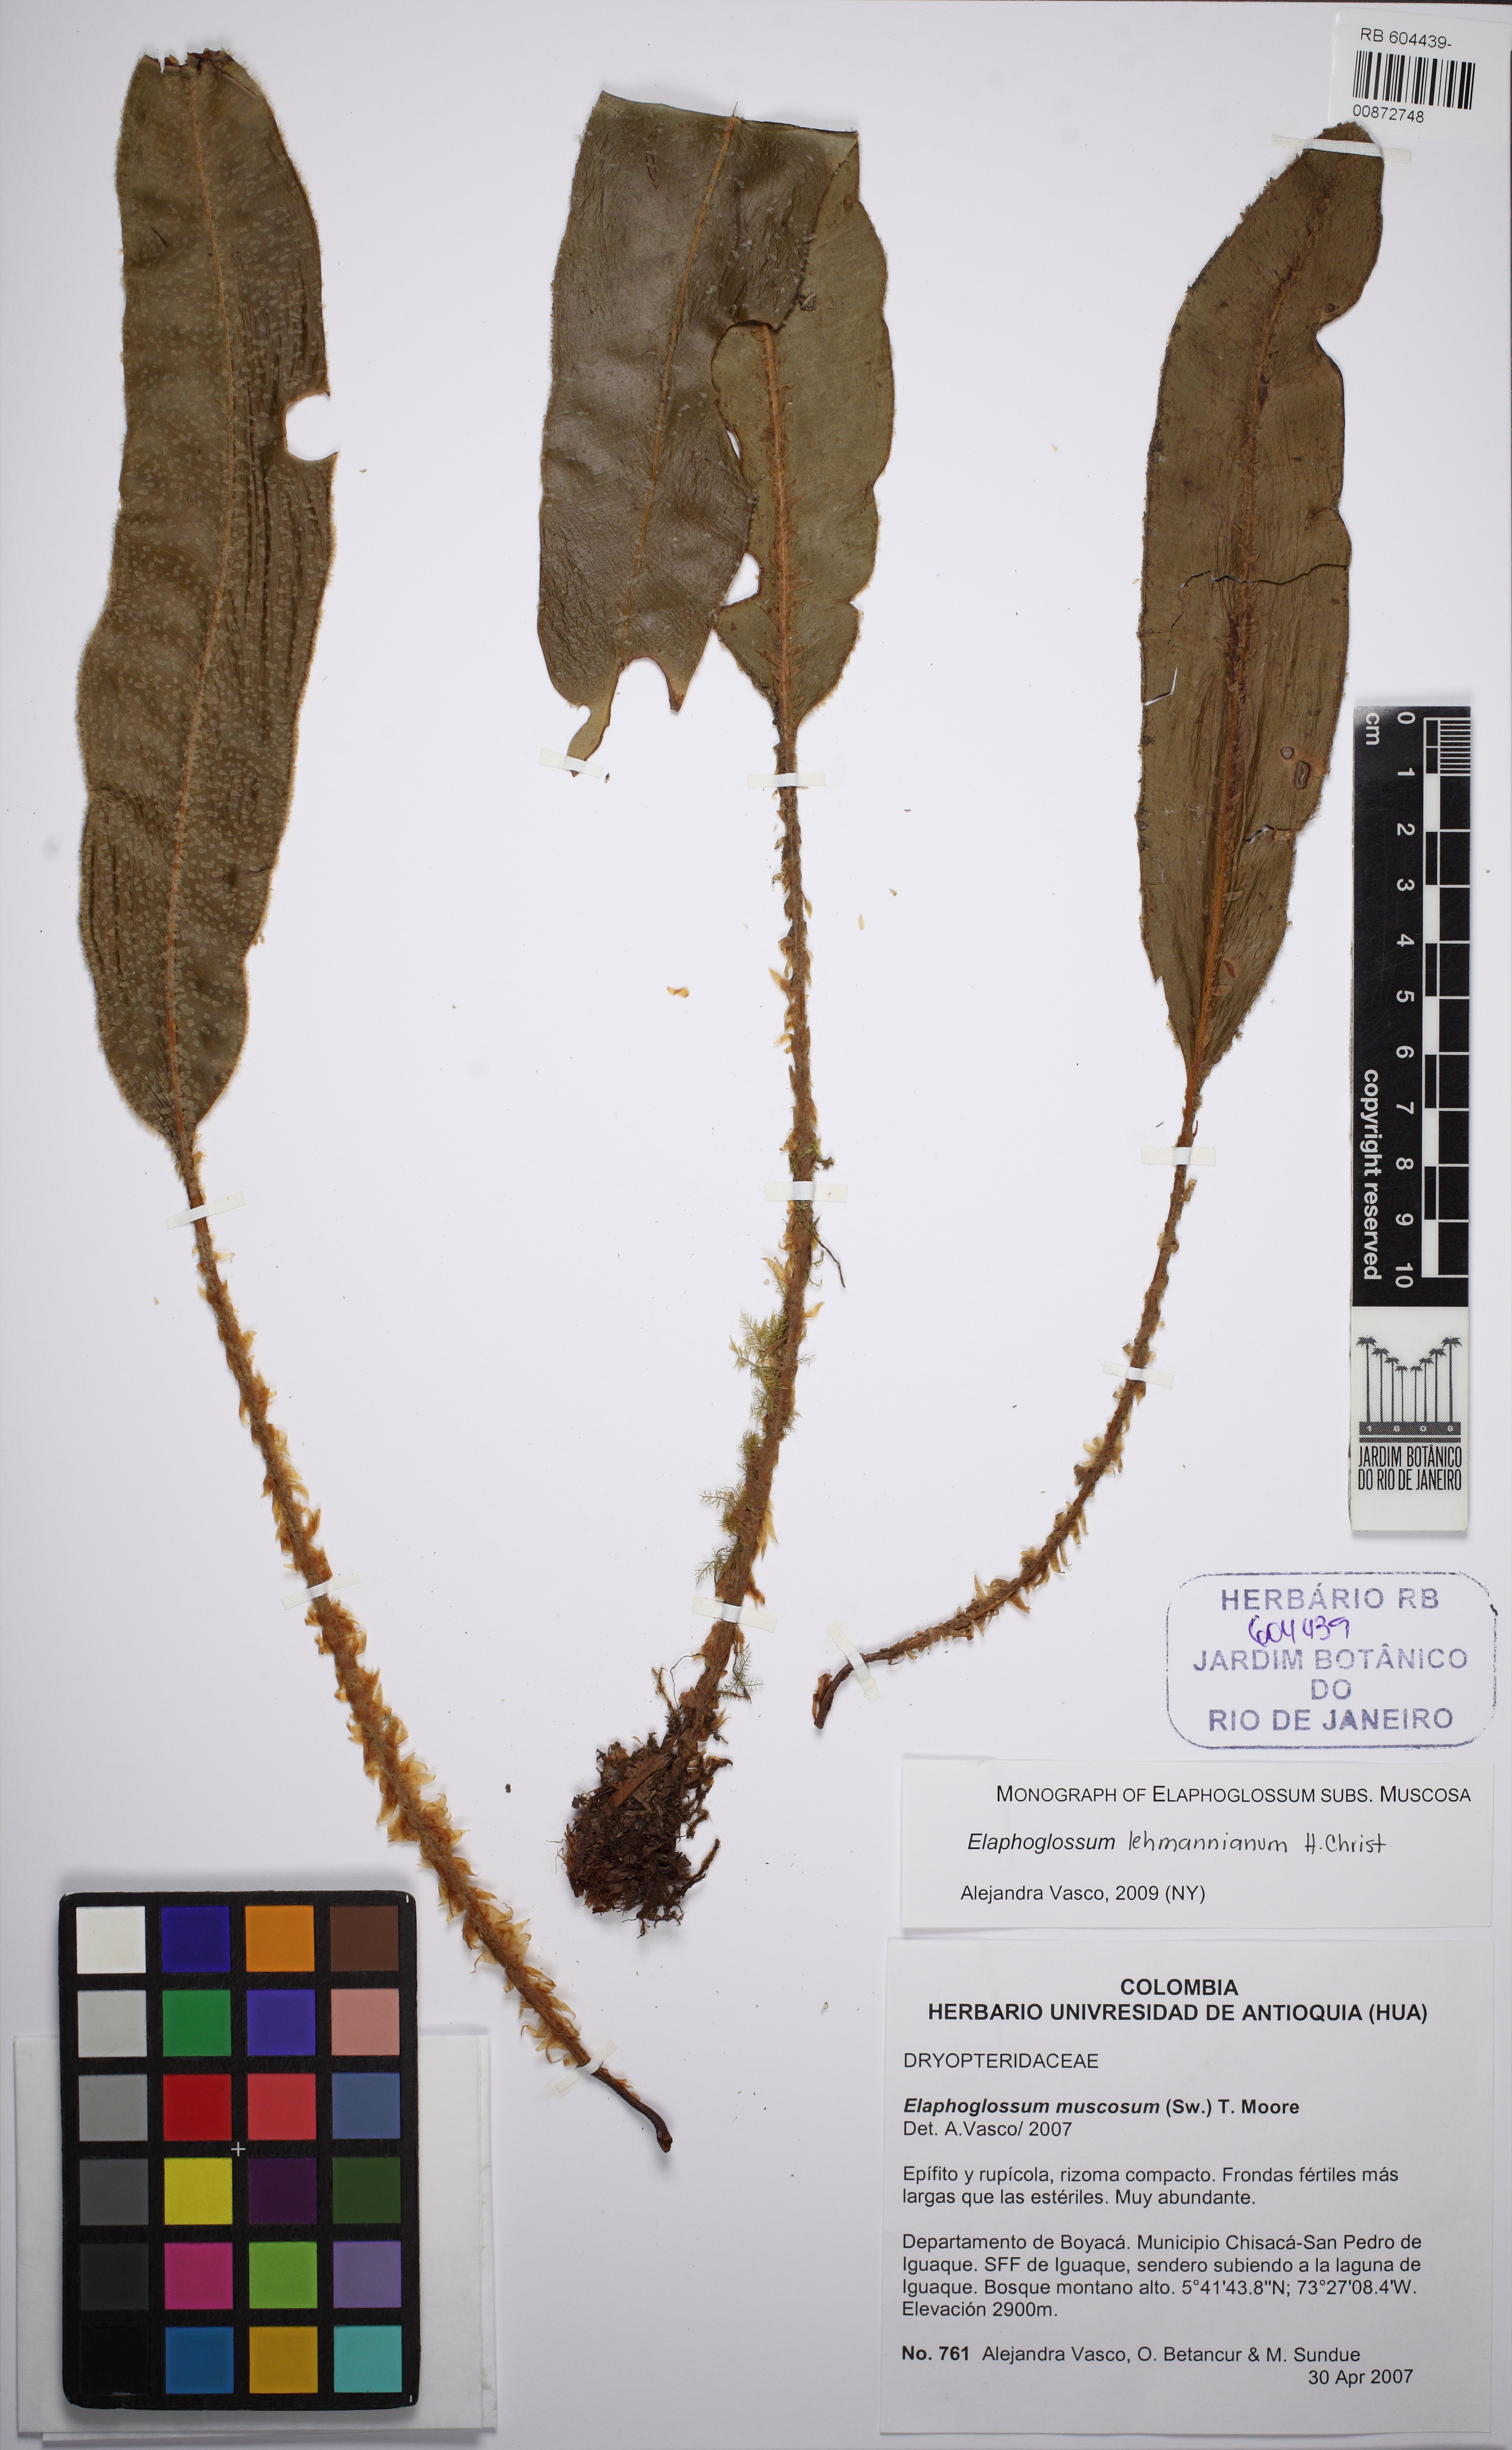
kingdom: Plantae
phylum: Tracheophyta
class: Polypodiopsida
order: Polypodiales
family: Dryopteridaceae
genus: Elaphoglossum
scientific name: Elaphoglossum lehmannianum
